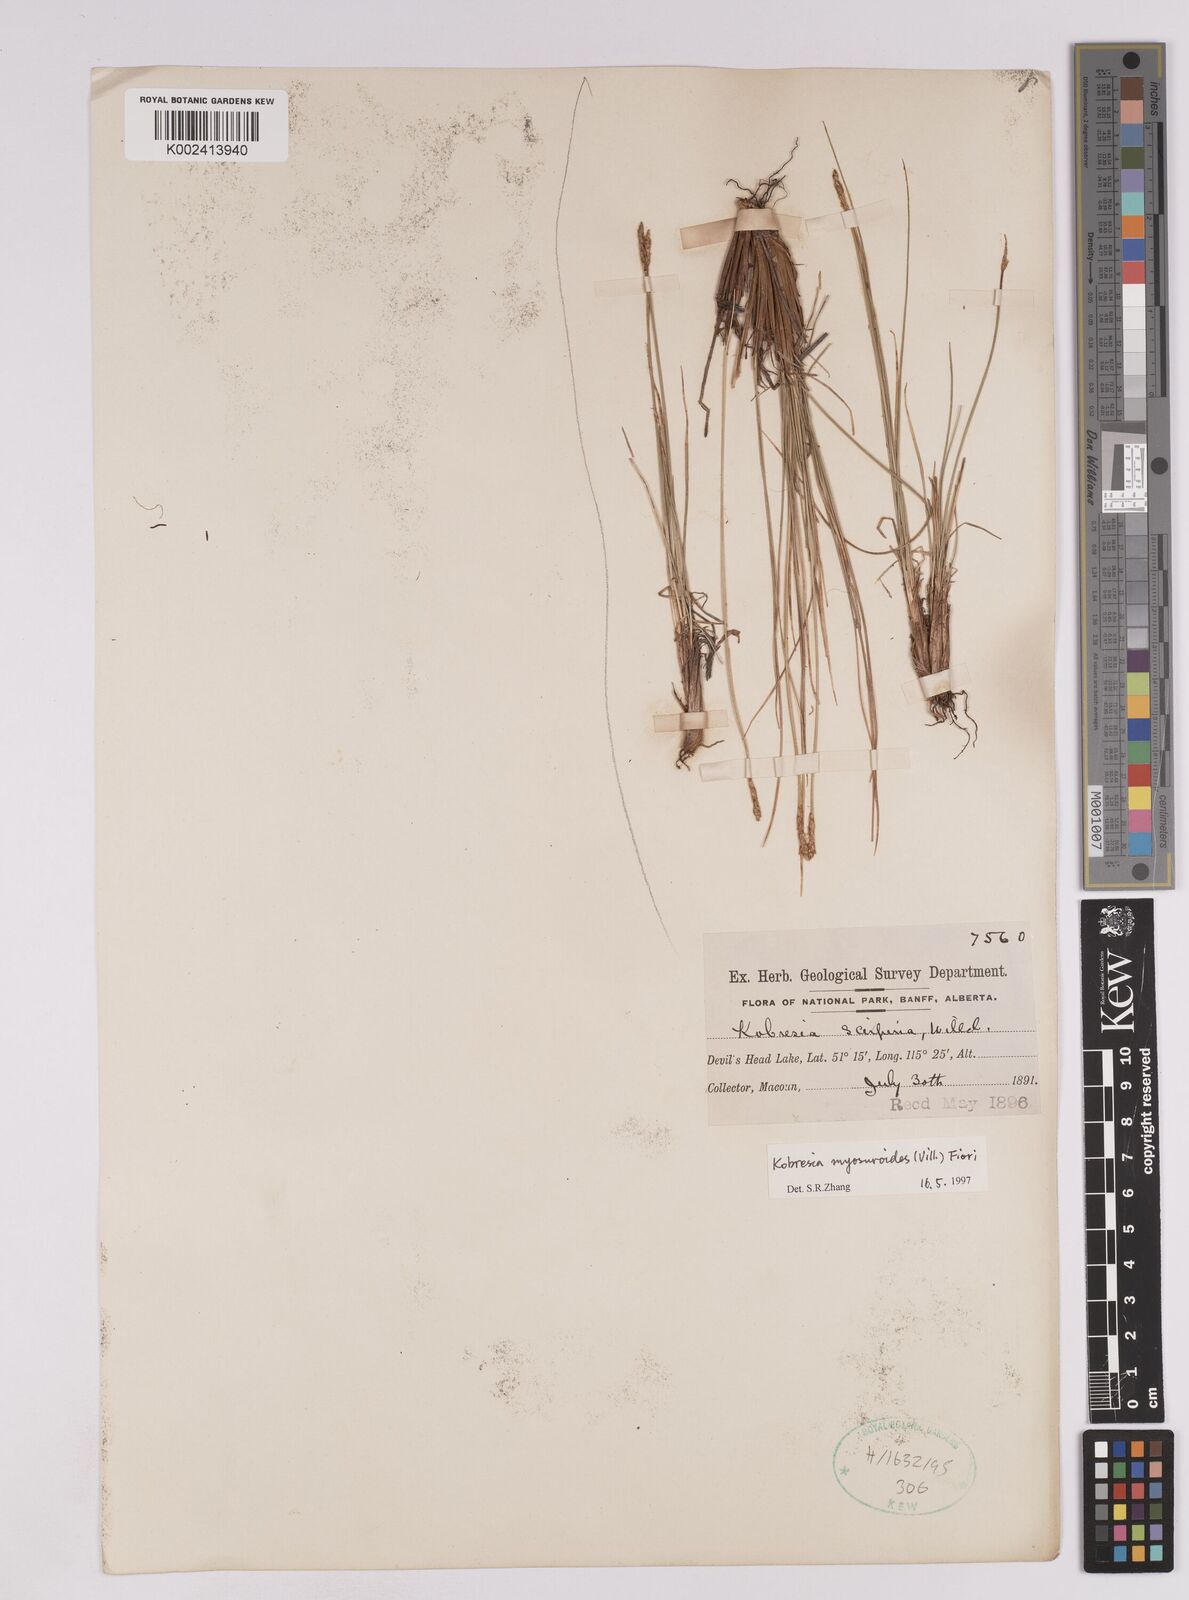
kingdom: Plantae
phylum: Tracheophyta
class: Liliopsida
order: Poales
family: Cyperaceae
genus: Carex
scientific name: Carex myosuroides
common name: Bellard's bog sedge
